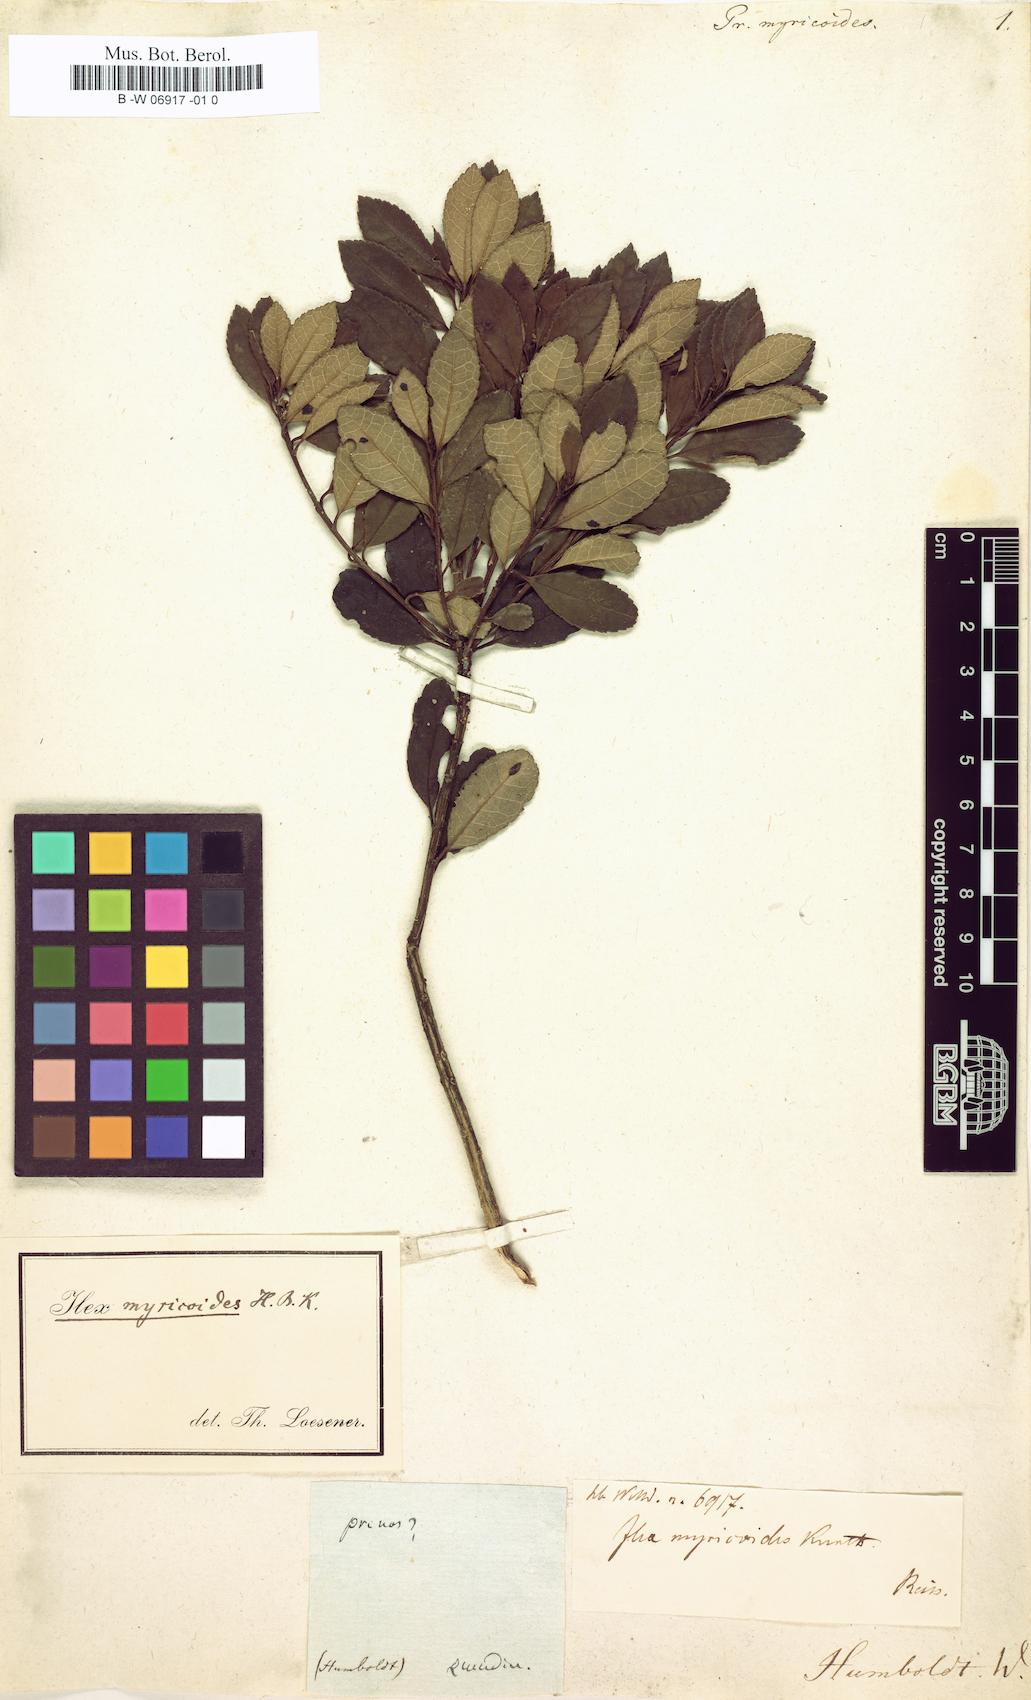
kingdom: Plantae
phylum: Tracheophyta
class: Magnoliopsida
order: Aquifoliales
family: Aquifoliaceae
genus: Ilex
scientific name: Ilex myricoides
